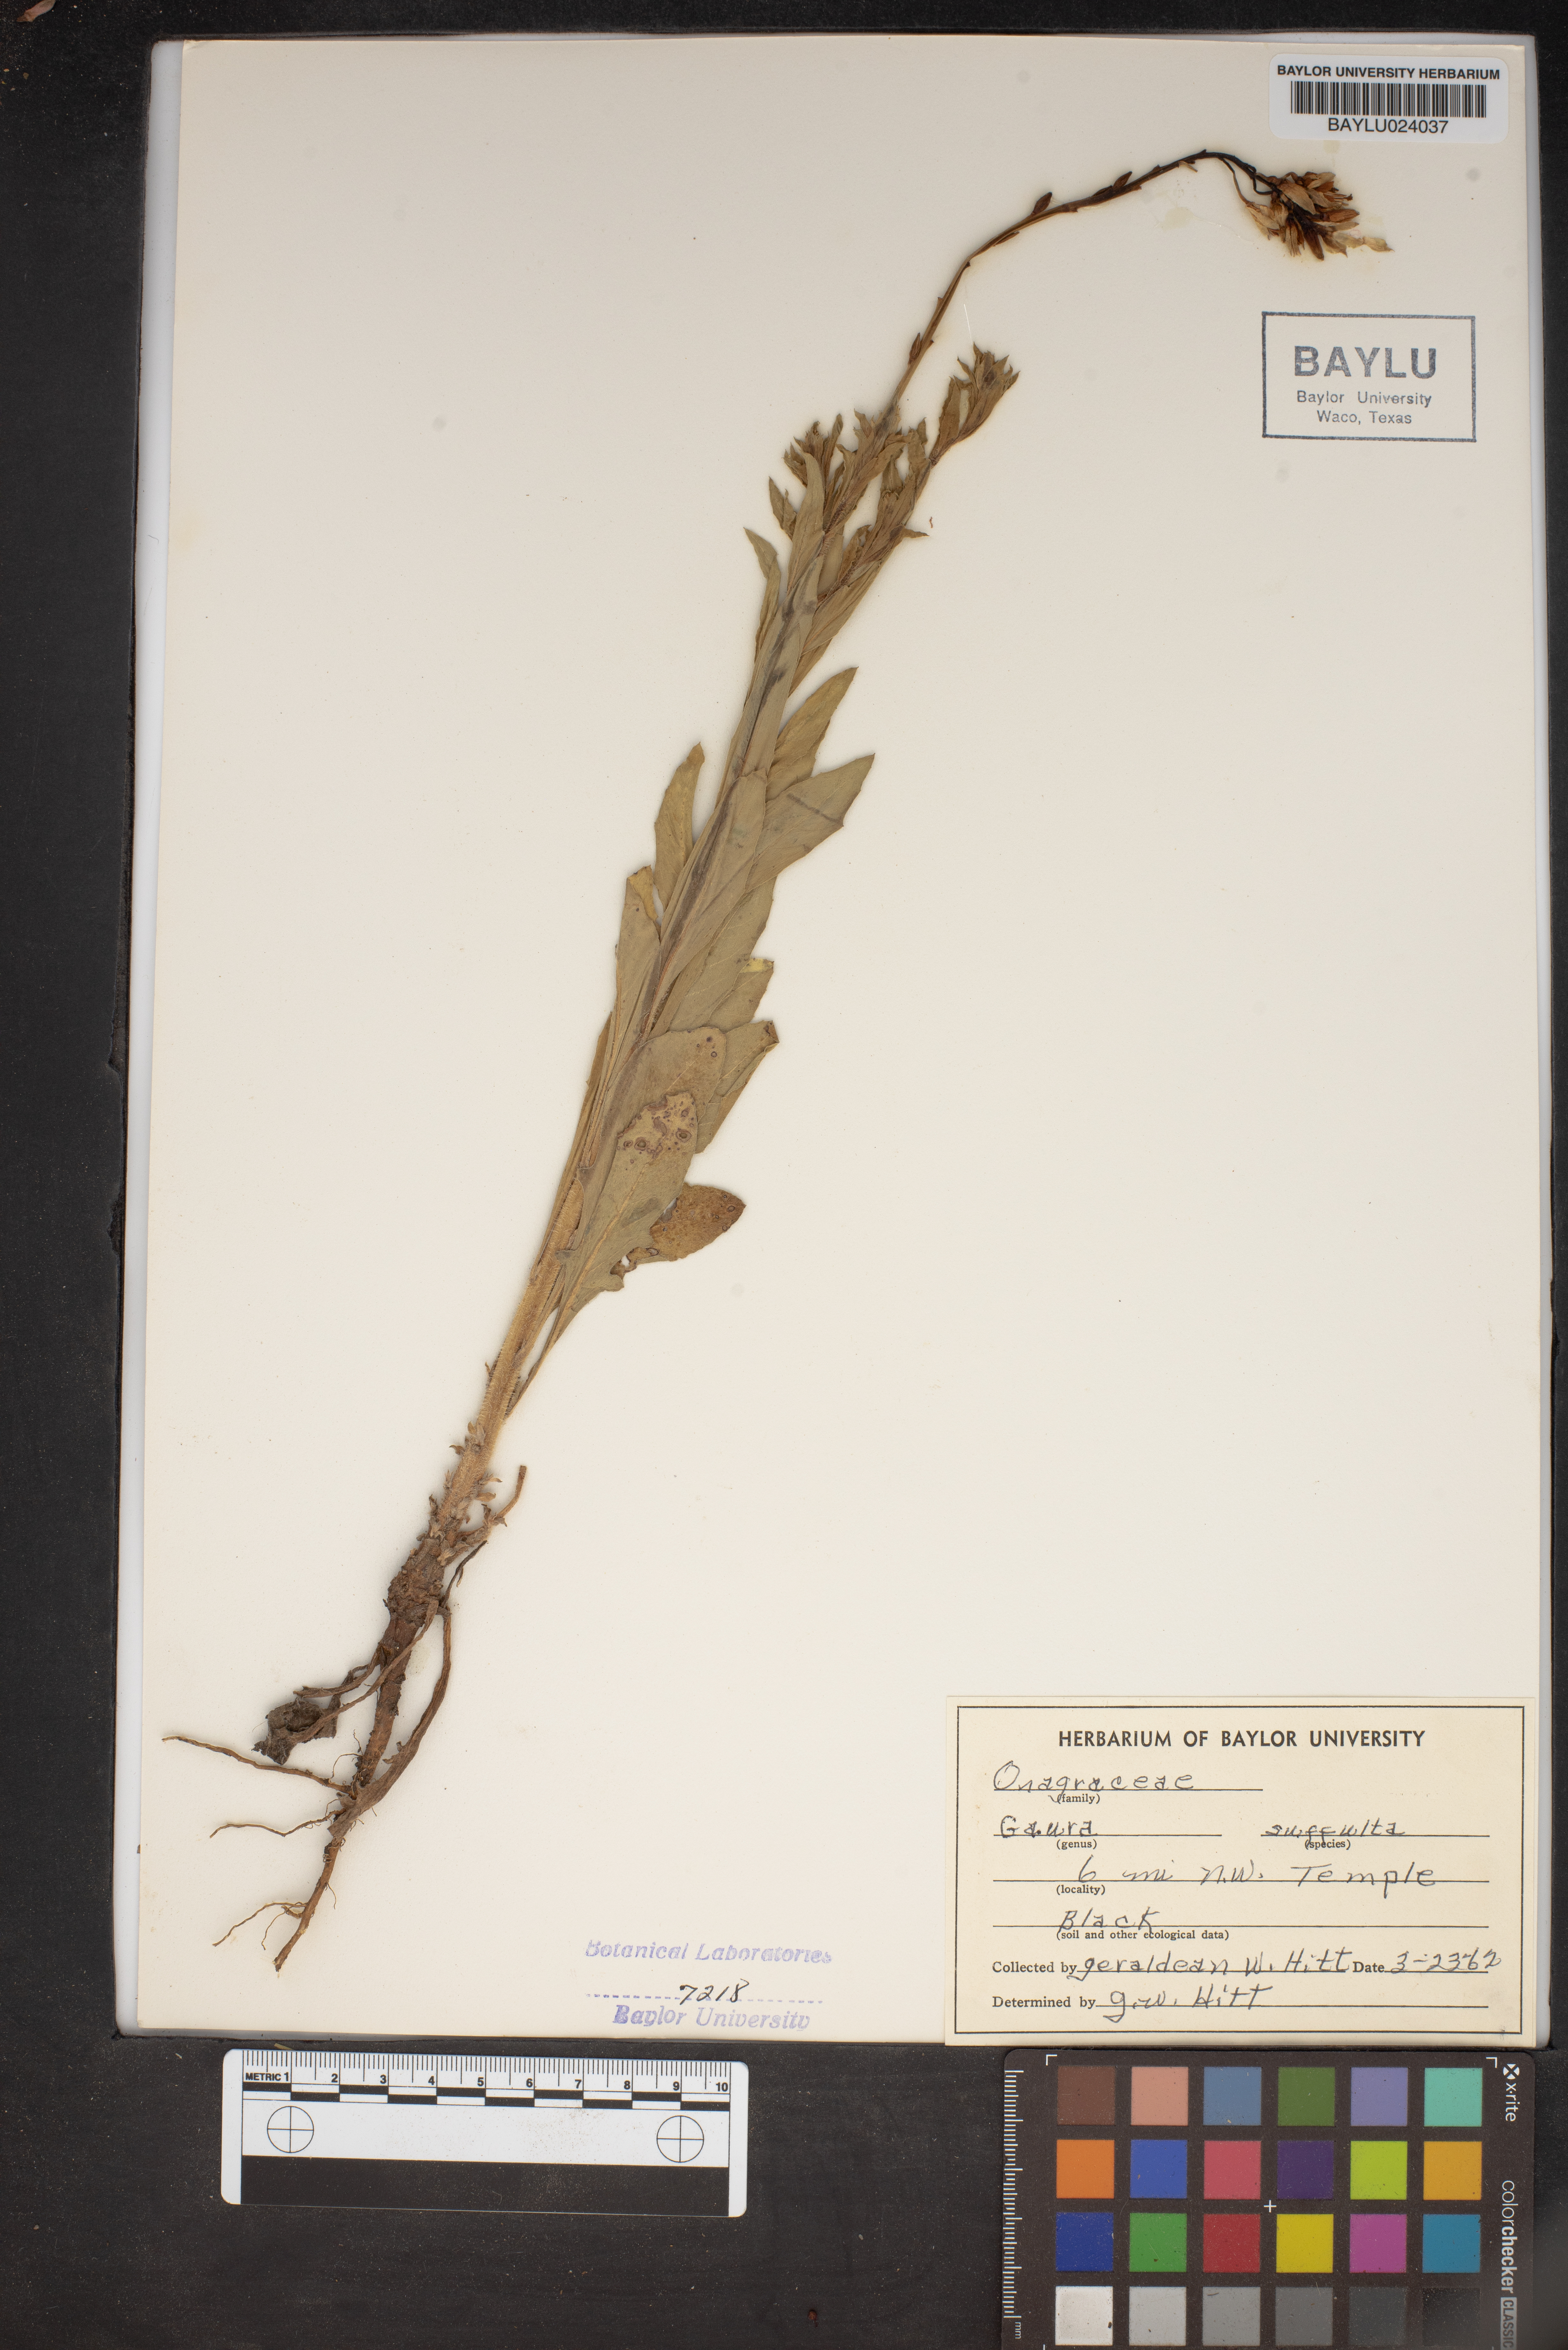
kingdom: Plantae
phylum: Tracheophyta
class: Magnoliopsida
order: Myrtales
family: Onagraceae
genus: Oenothera
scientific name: Oenothera Gaura suffulta
